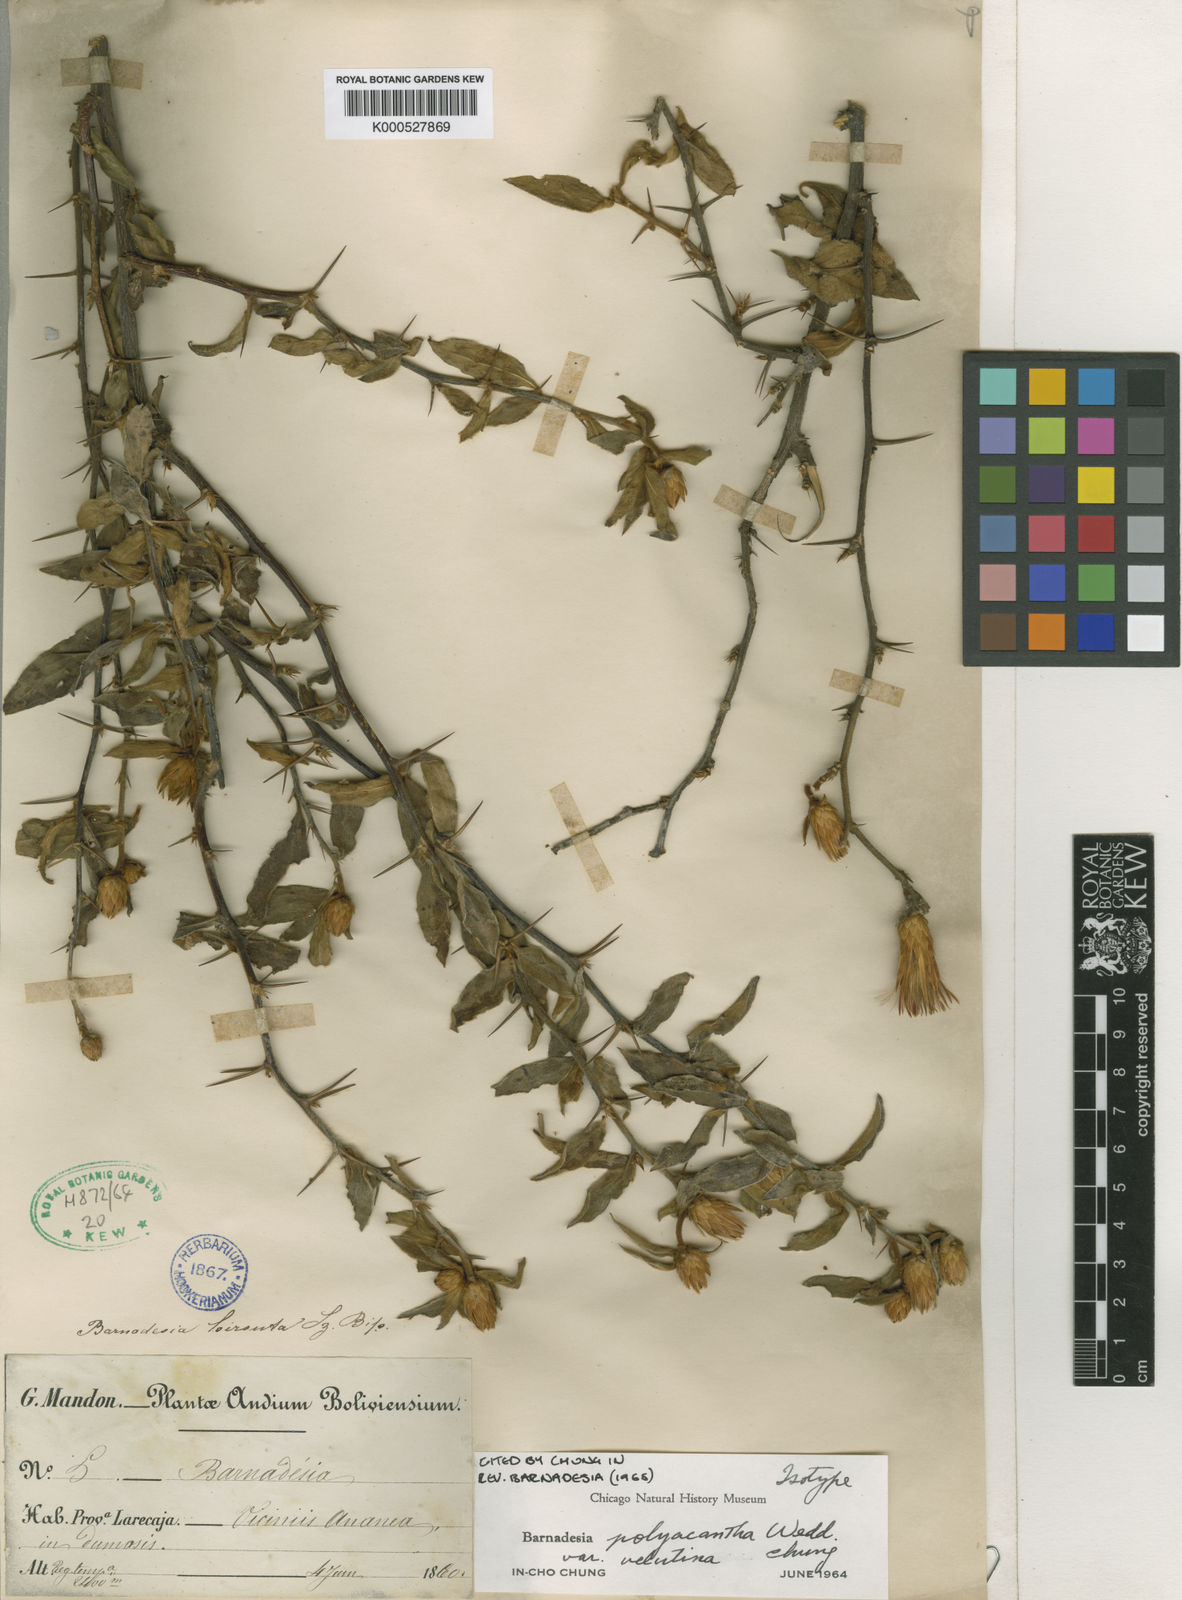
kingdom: Plantae
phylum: Tracheophyta
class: Magnoliopsida
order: Asterales
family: Asteraceae
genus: Barnadesia
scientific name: Barnadesia polyacantha
